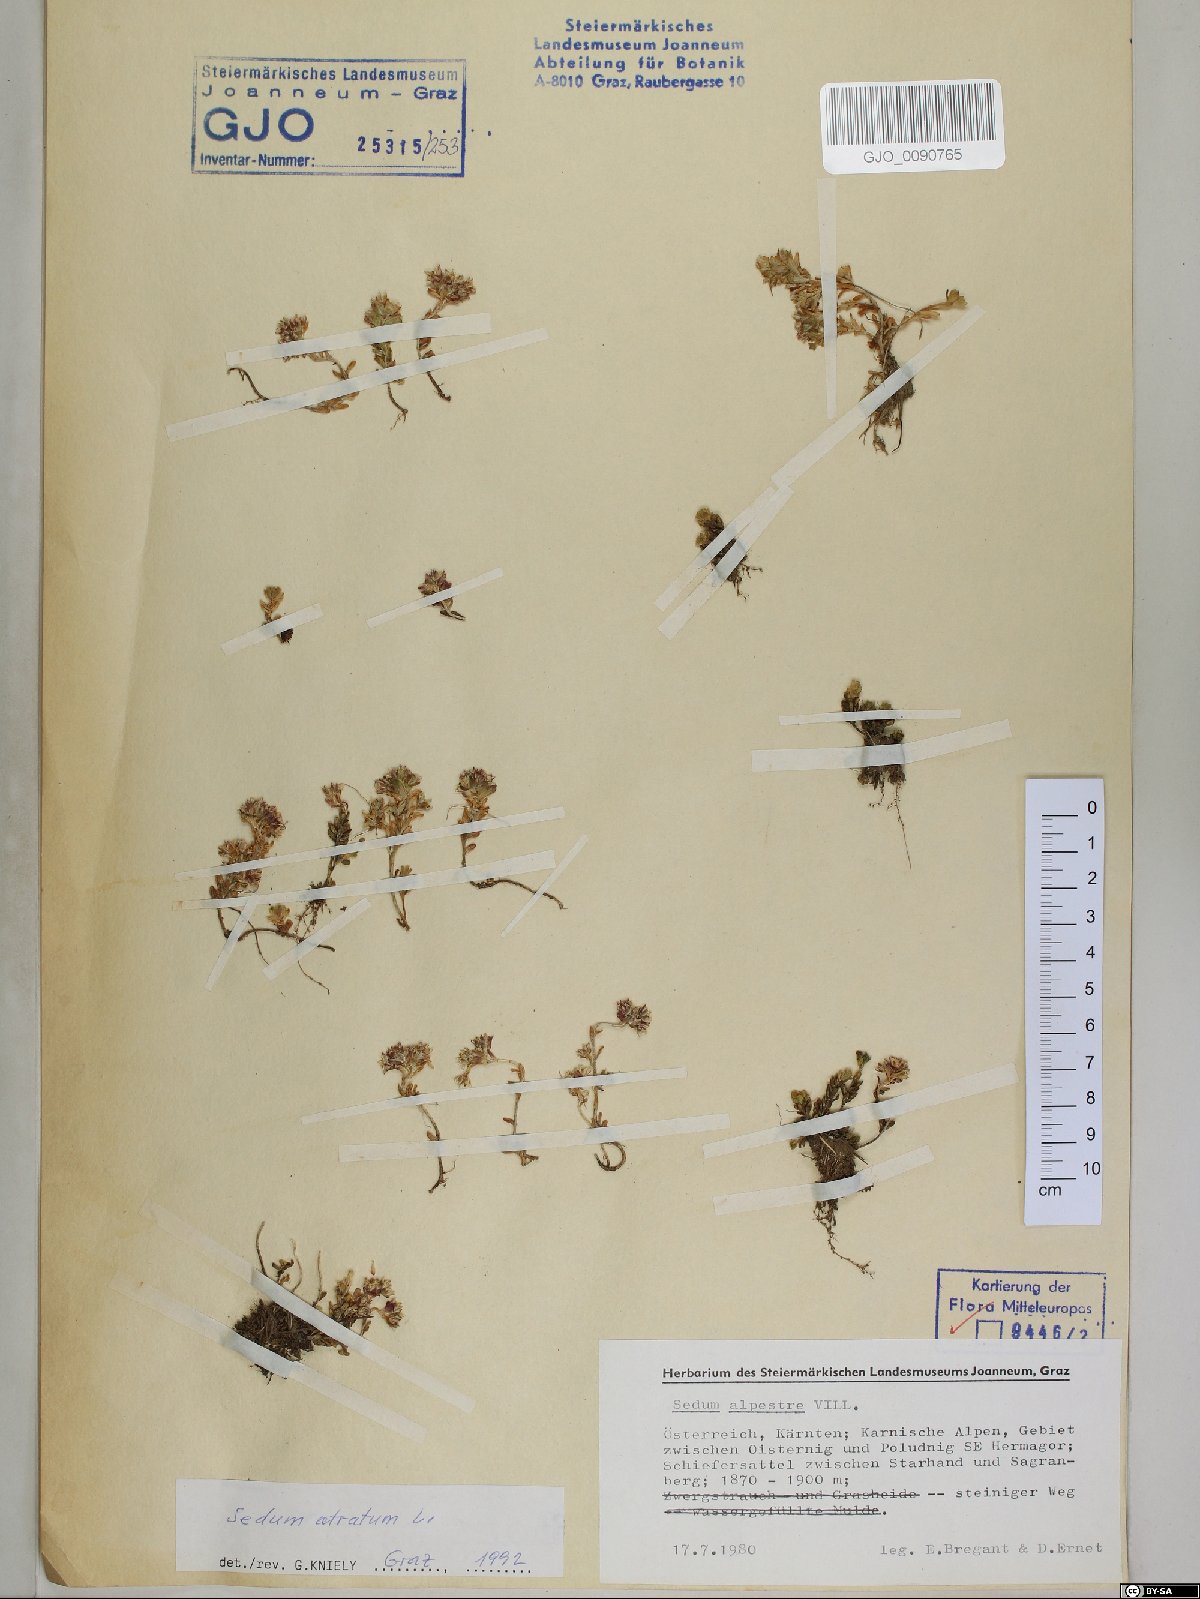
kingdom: Plantae
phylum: Tracheophyta
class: Magnoliopsida
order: Saxifragales
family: Crassulaceae
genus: Sedum
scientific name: Sedum atratum
